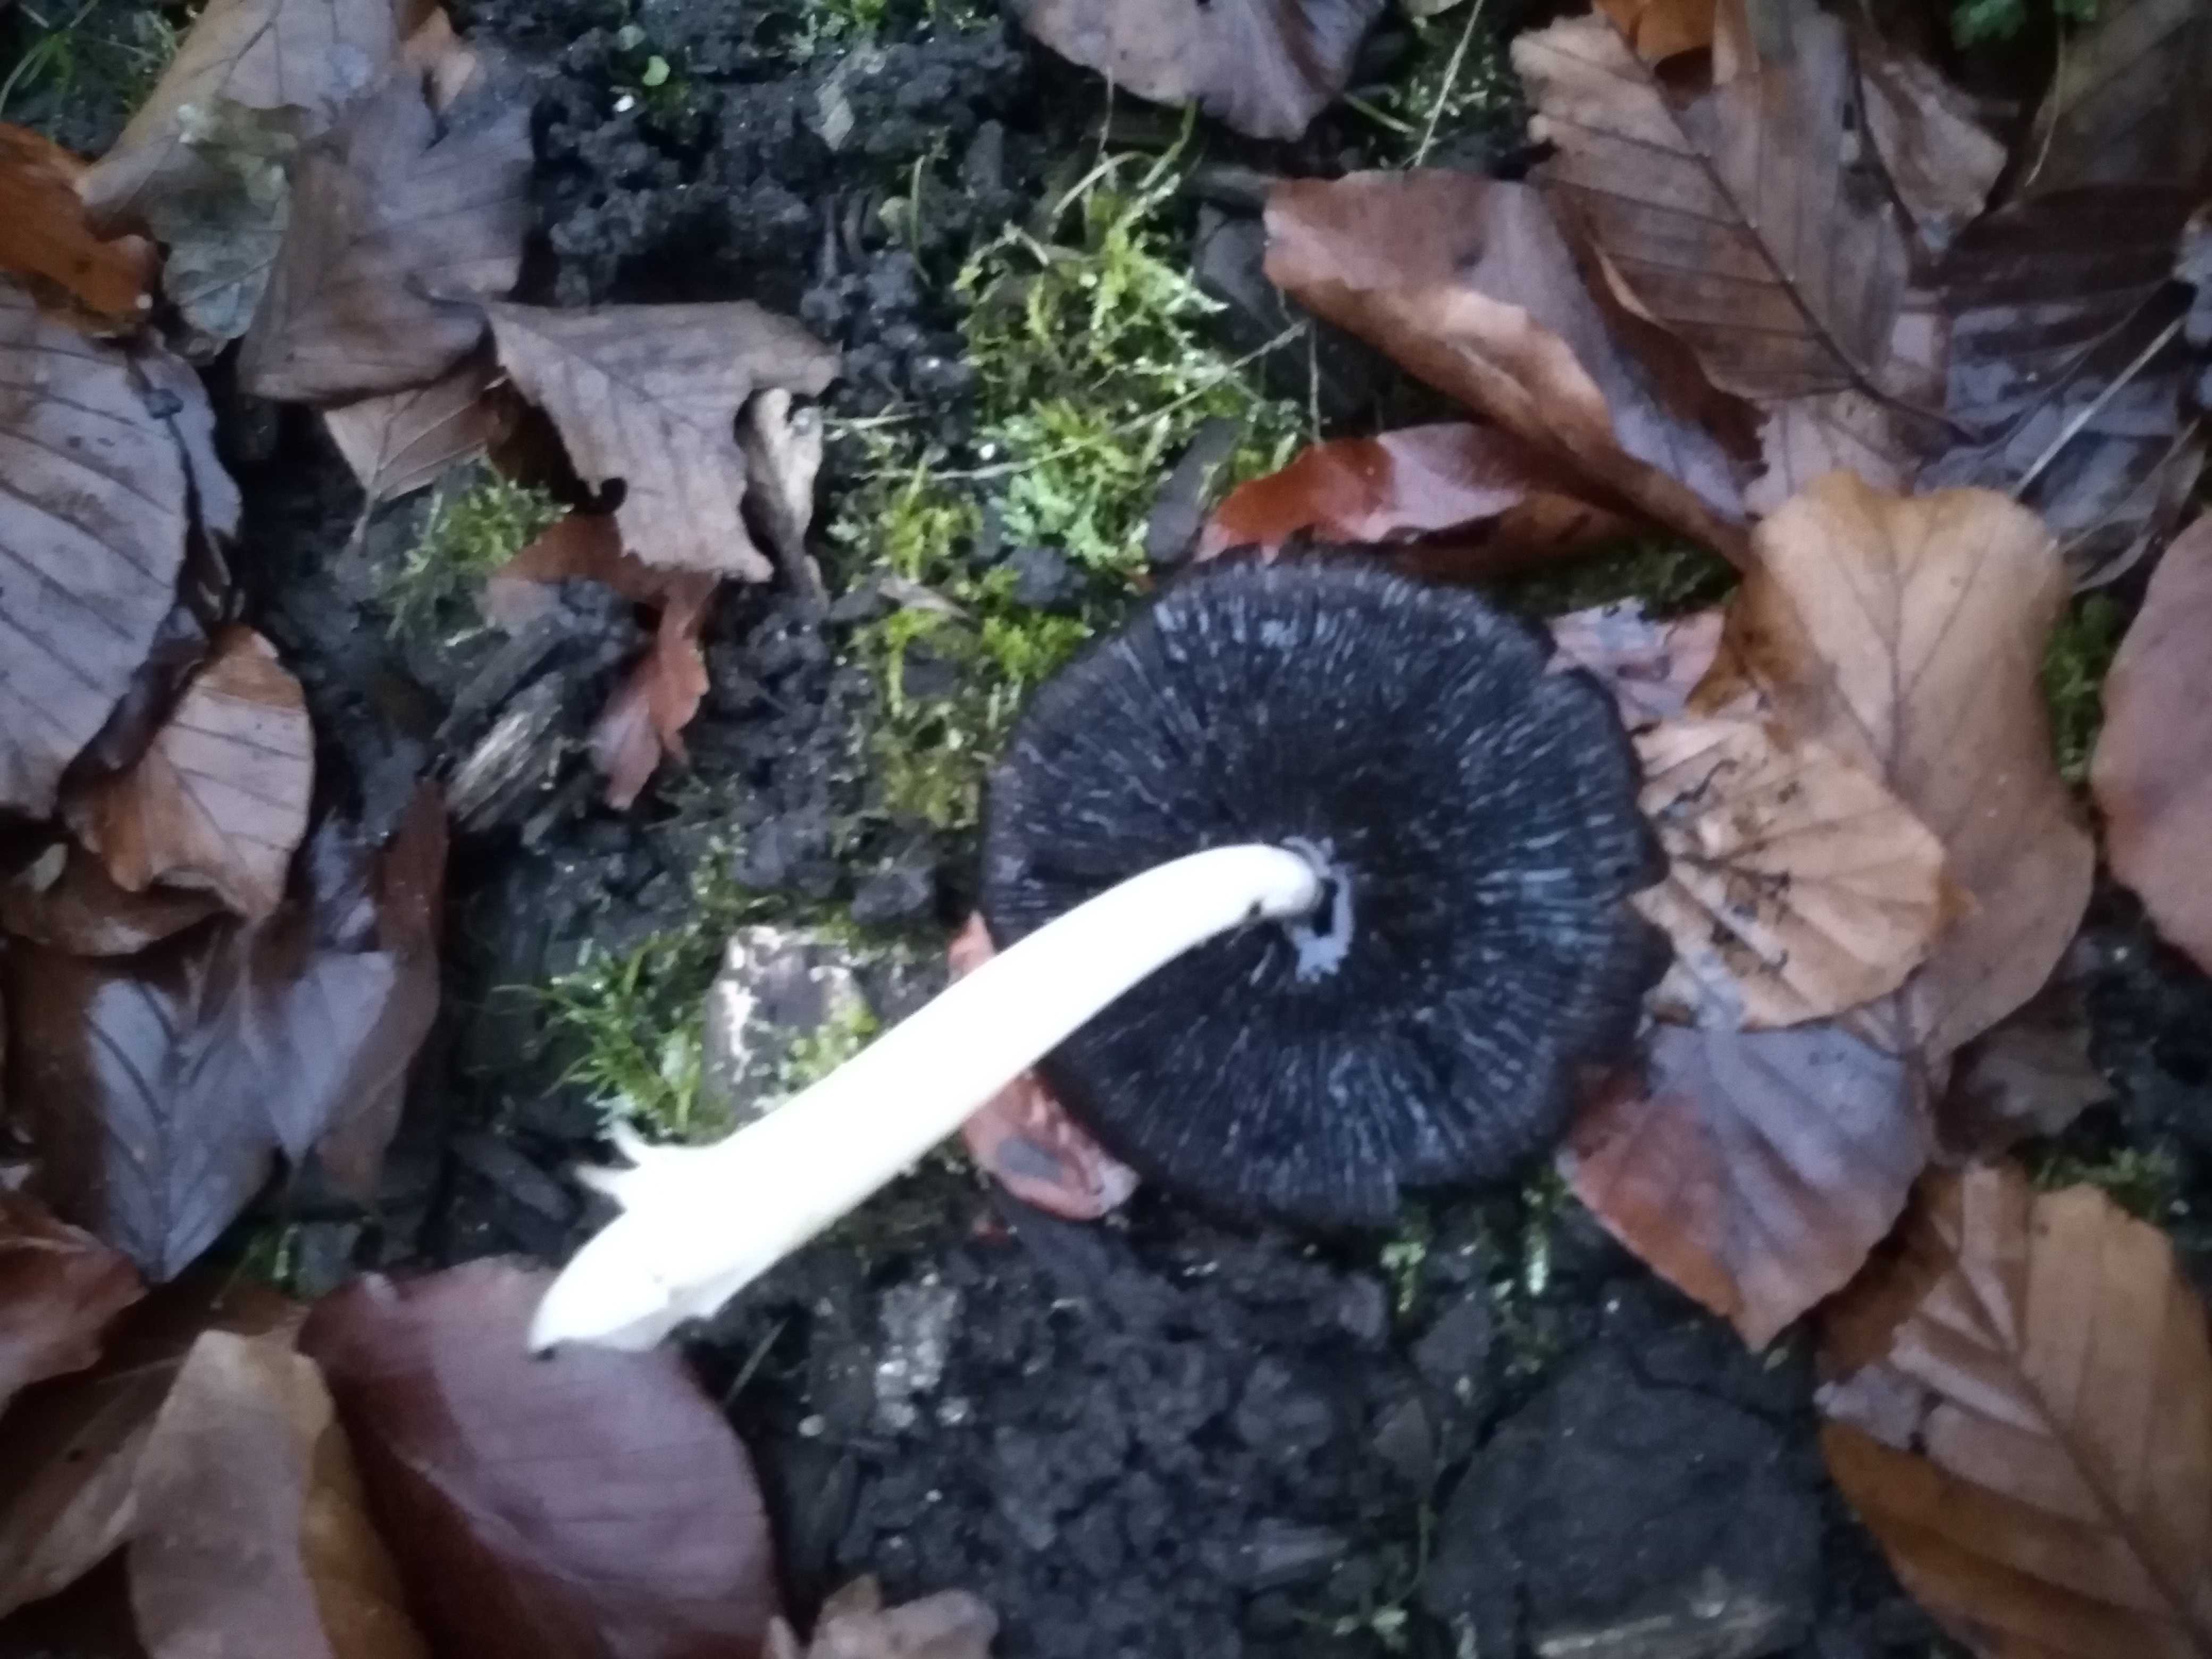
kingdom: Fungi
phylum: Basidiomycota
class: Agaricomycetes
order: Agaricales
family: Psathyrellaceae
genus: Coprinopsis
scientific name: Coprinopsis atramentaria
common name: almindelig blækhat
